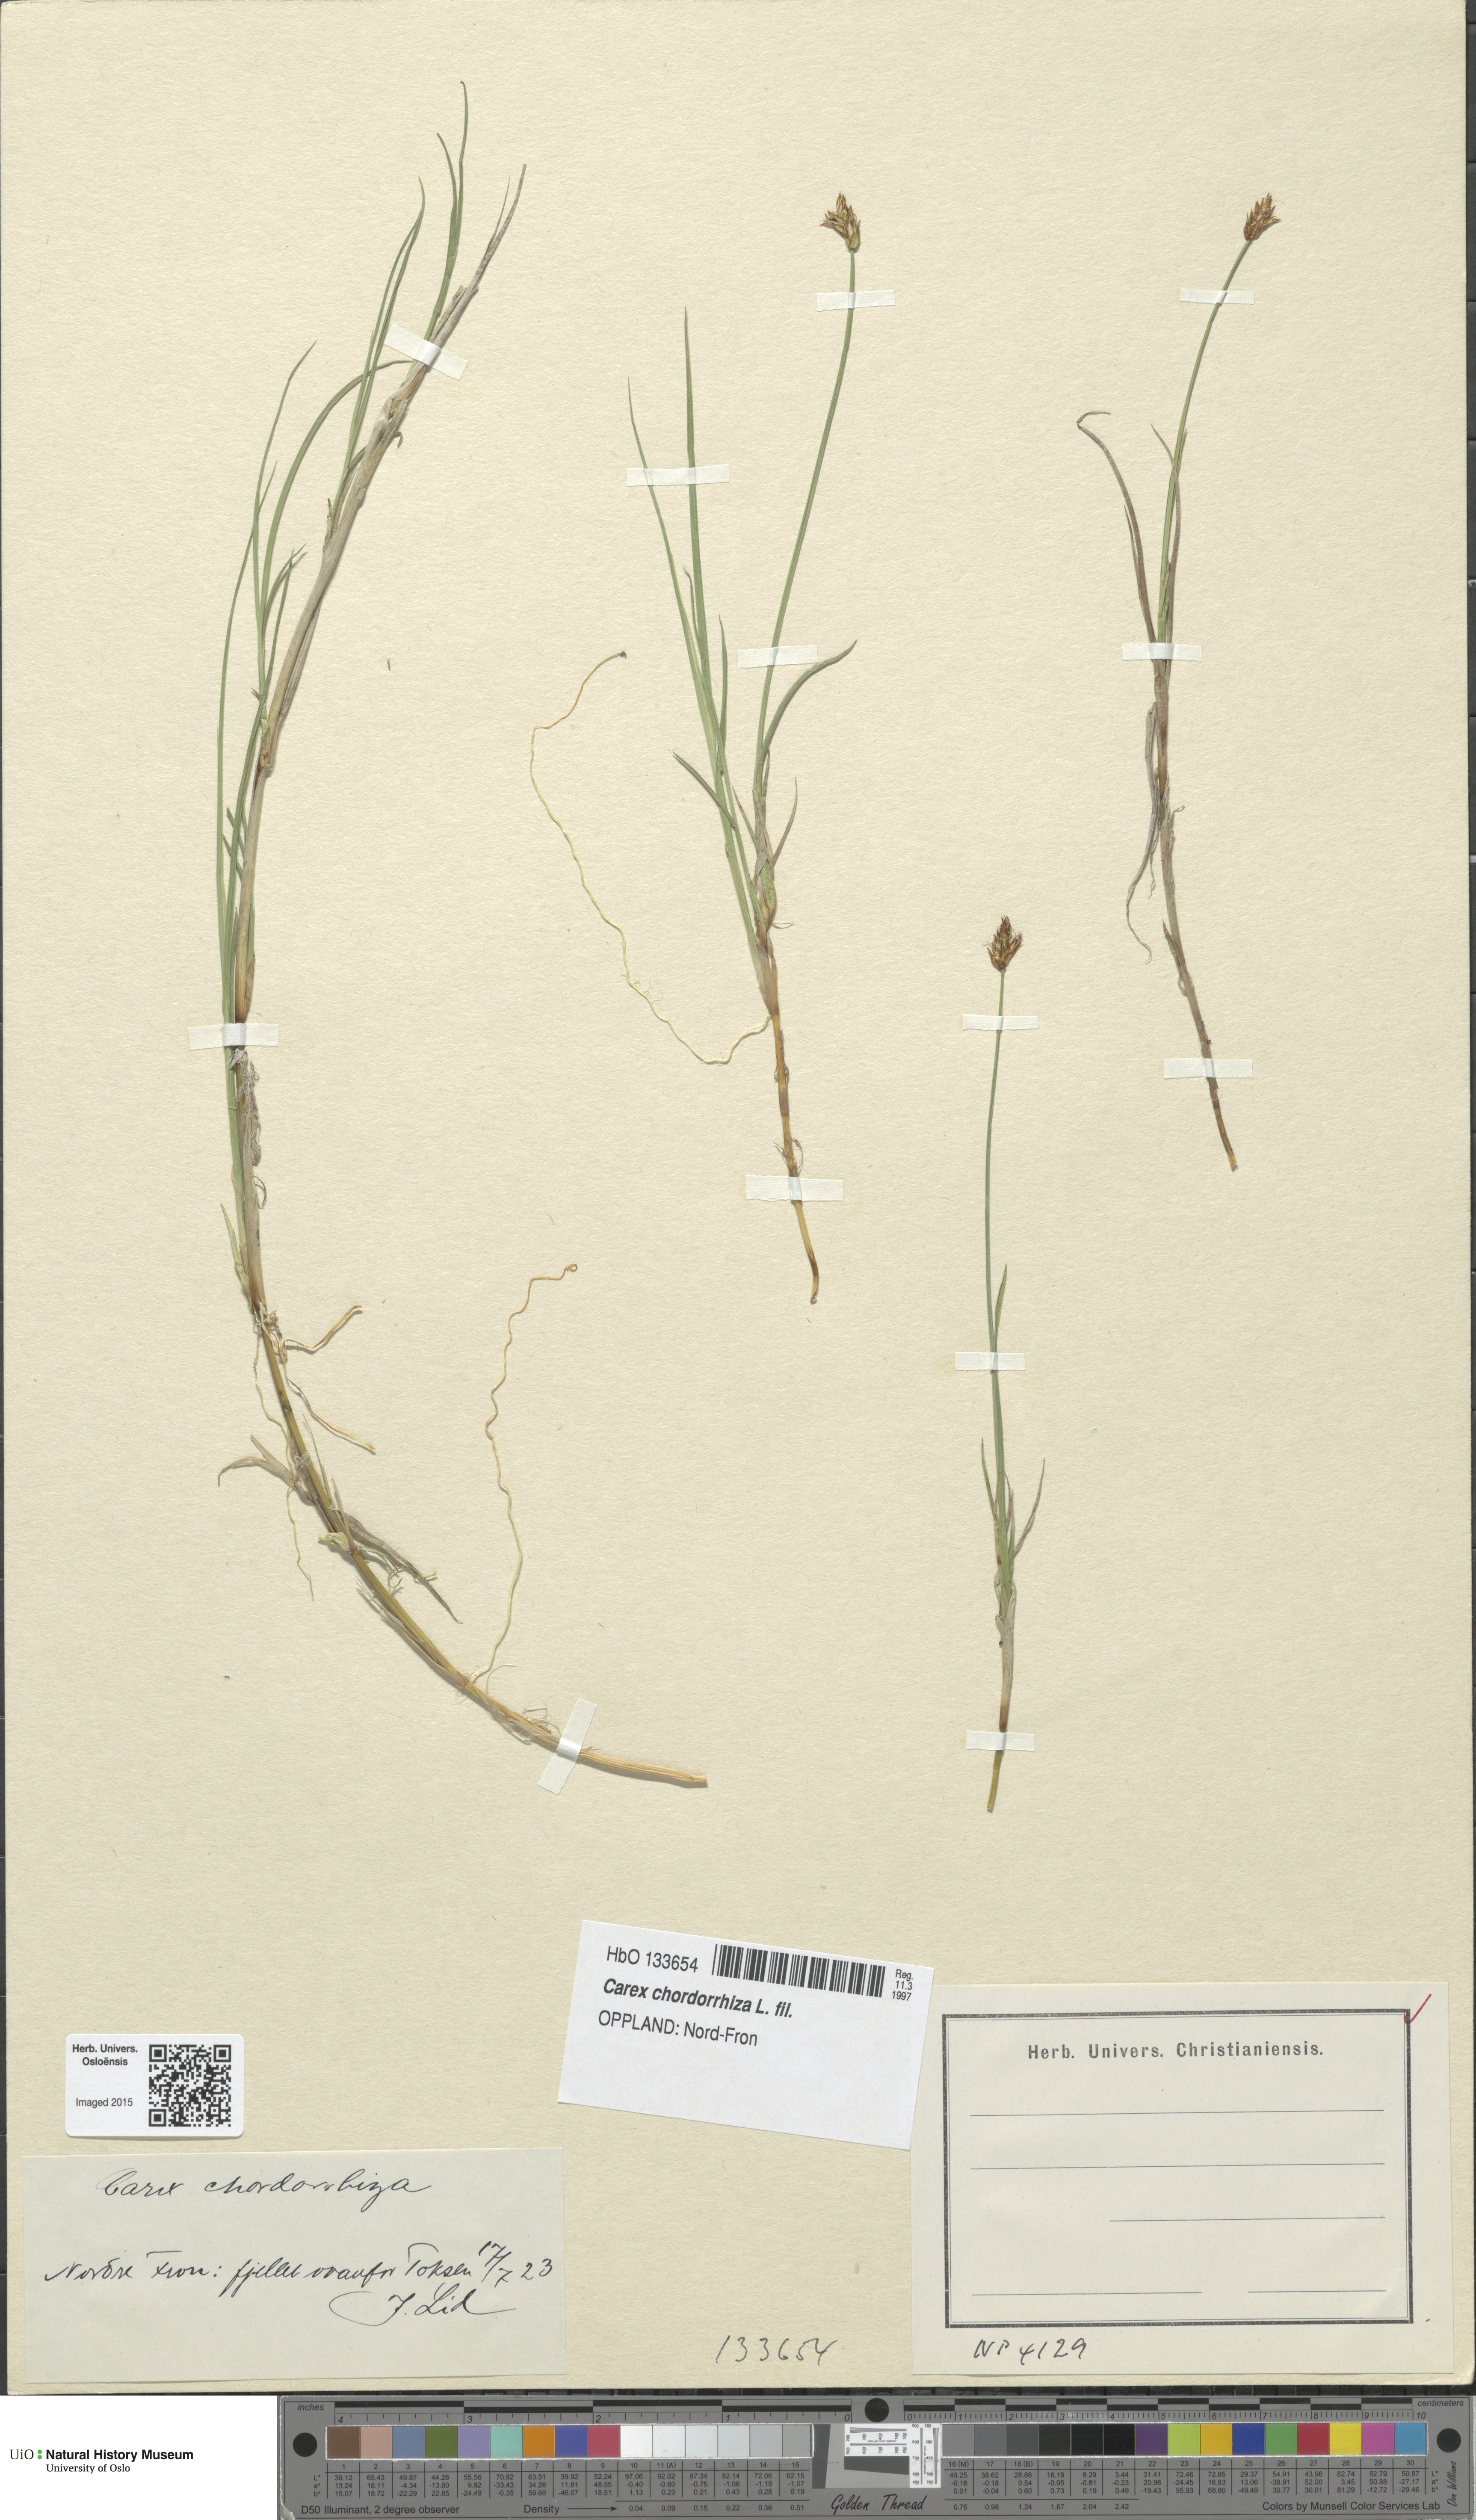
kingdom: Plantae
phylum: Tracheophyta
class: Liliopsida
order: Poales
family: Cyperaceae
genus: Carex
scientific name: Carex chordorrhiza
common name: String sedge
